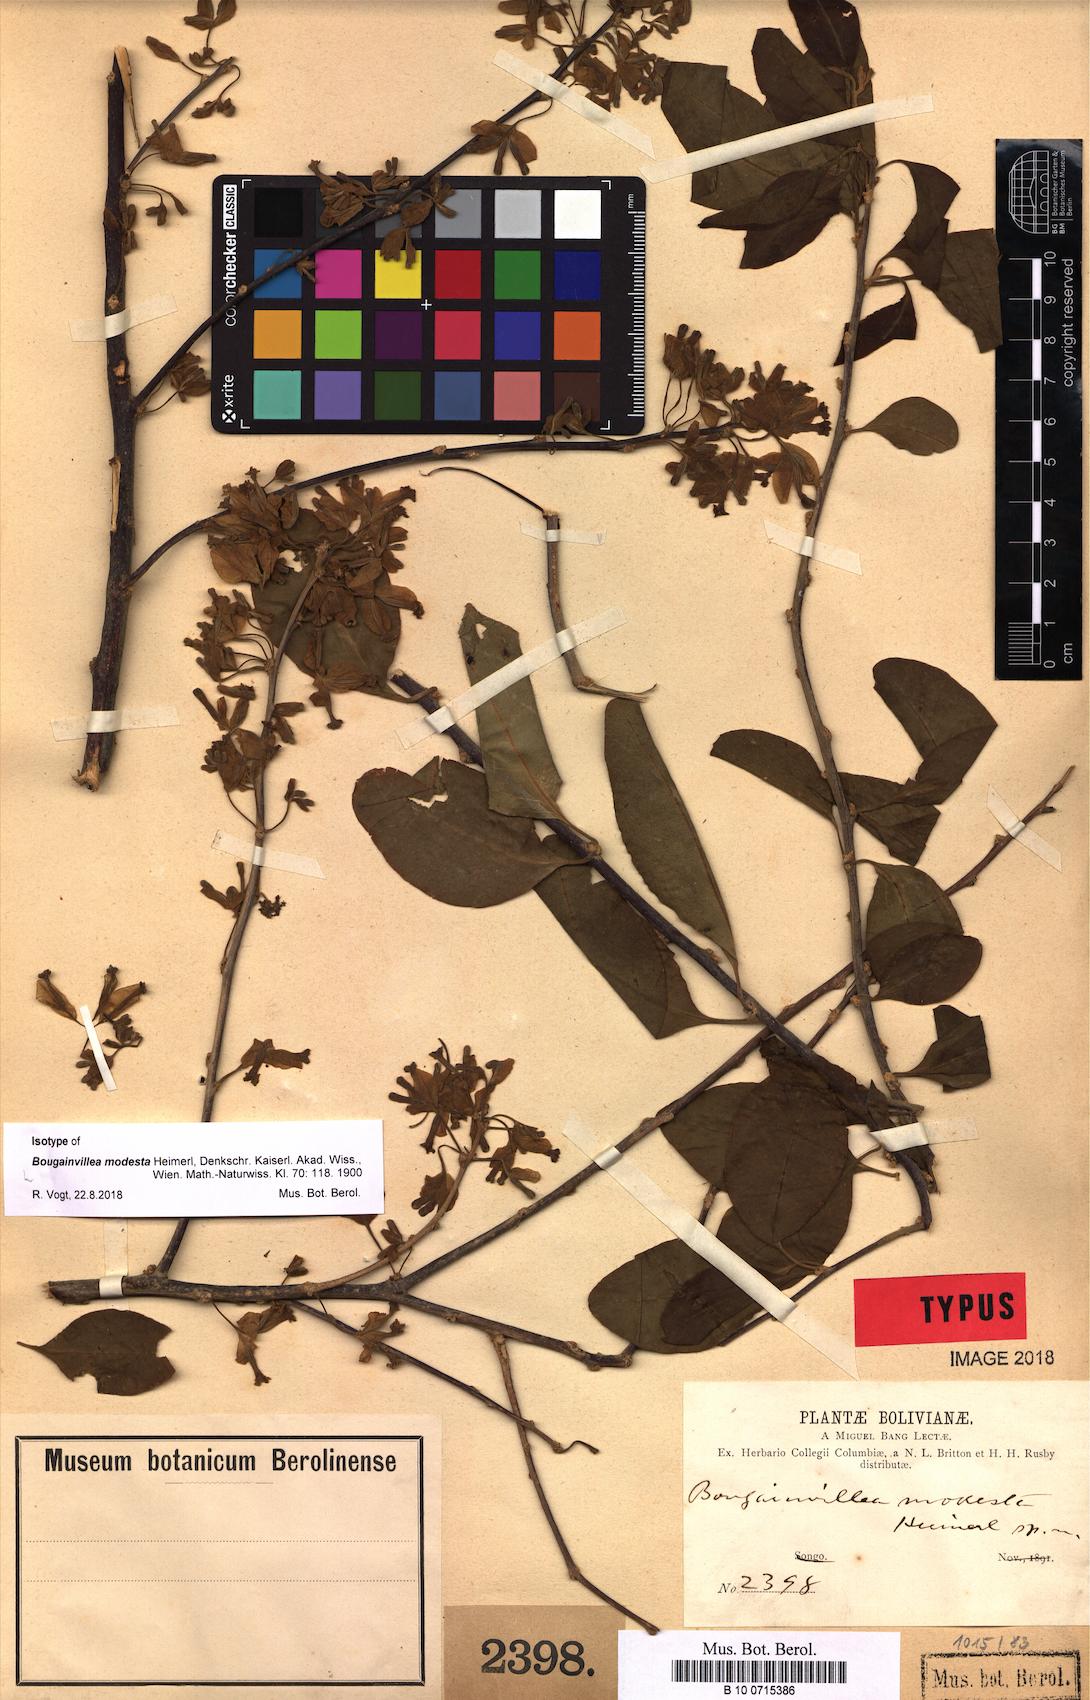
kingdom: Plantae
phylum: Tracheophyta
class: Magnoliopsida
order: Caryophyllales
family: Nyctaginaceae
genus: Bougainvillea
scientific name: Bougainvillea modesta
